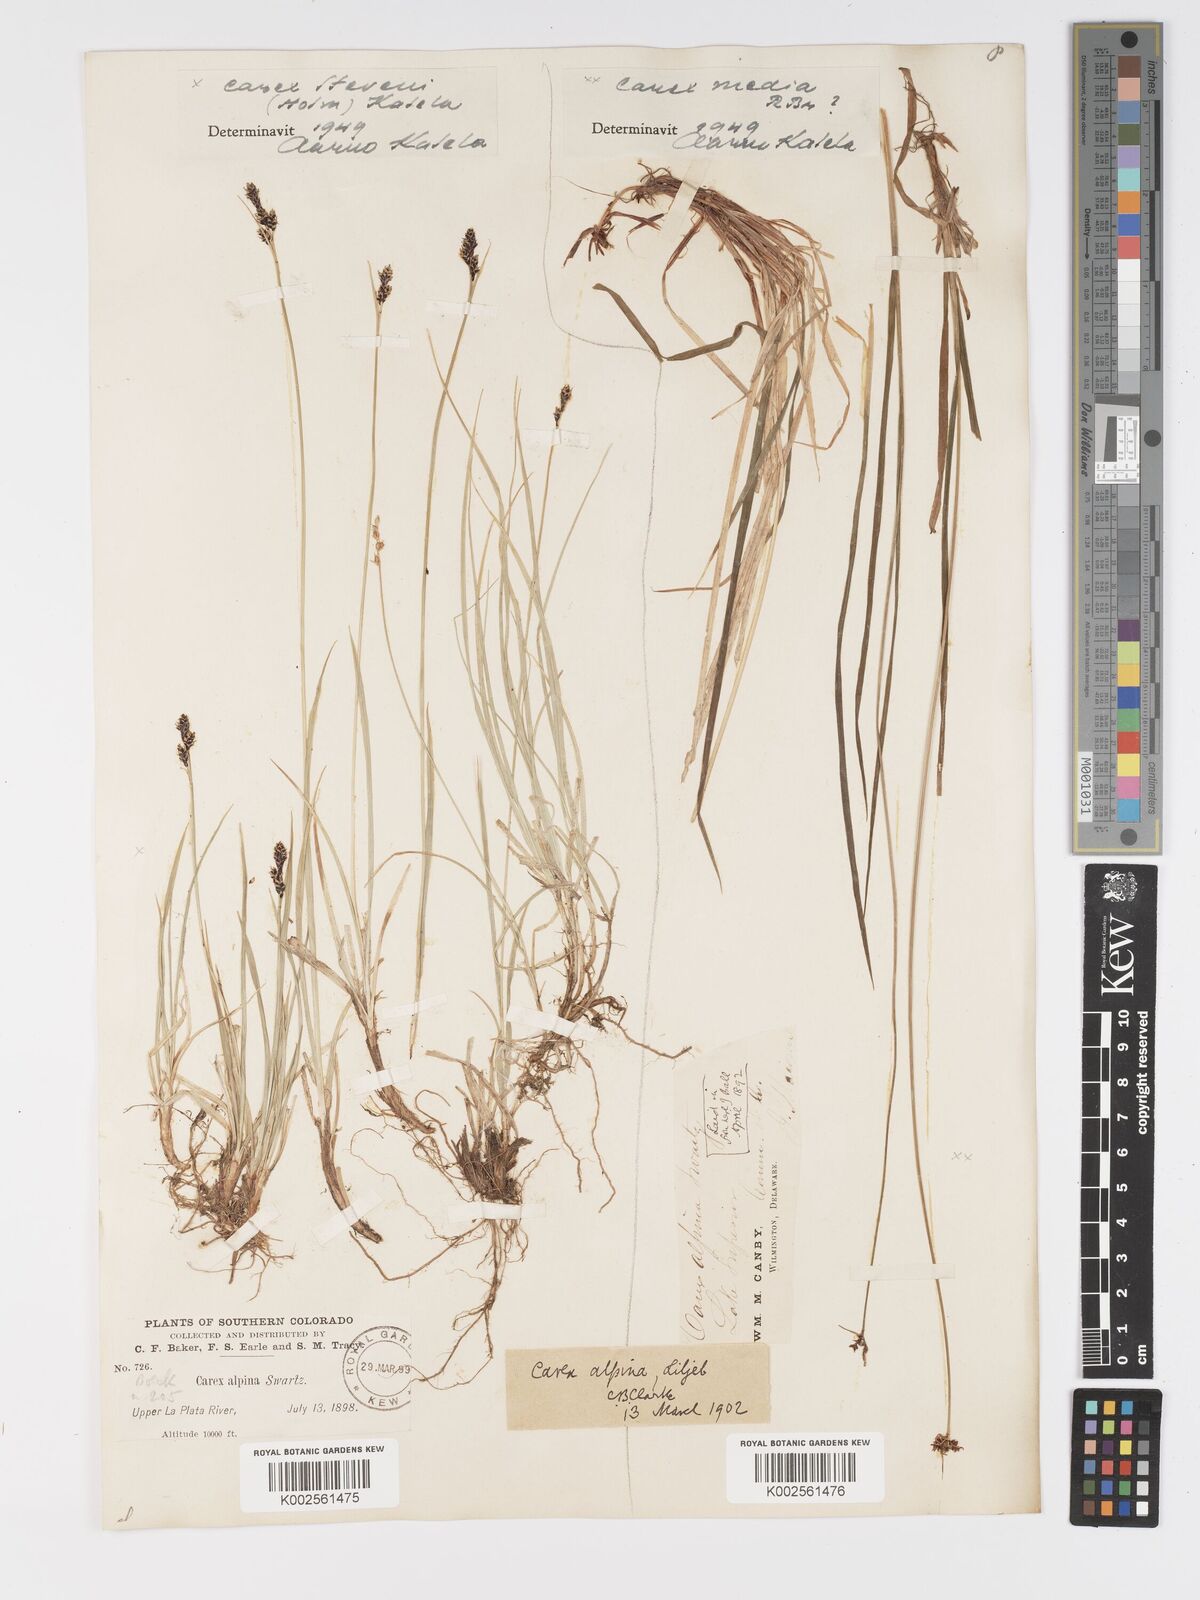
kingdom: Plantae
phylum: Tracheophyta
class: Liliopsida
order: Poales
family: Cyperaceae
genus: Carex
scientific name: Carex stevenii
